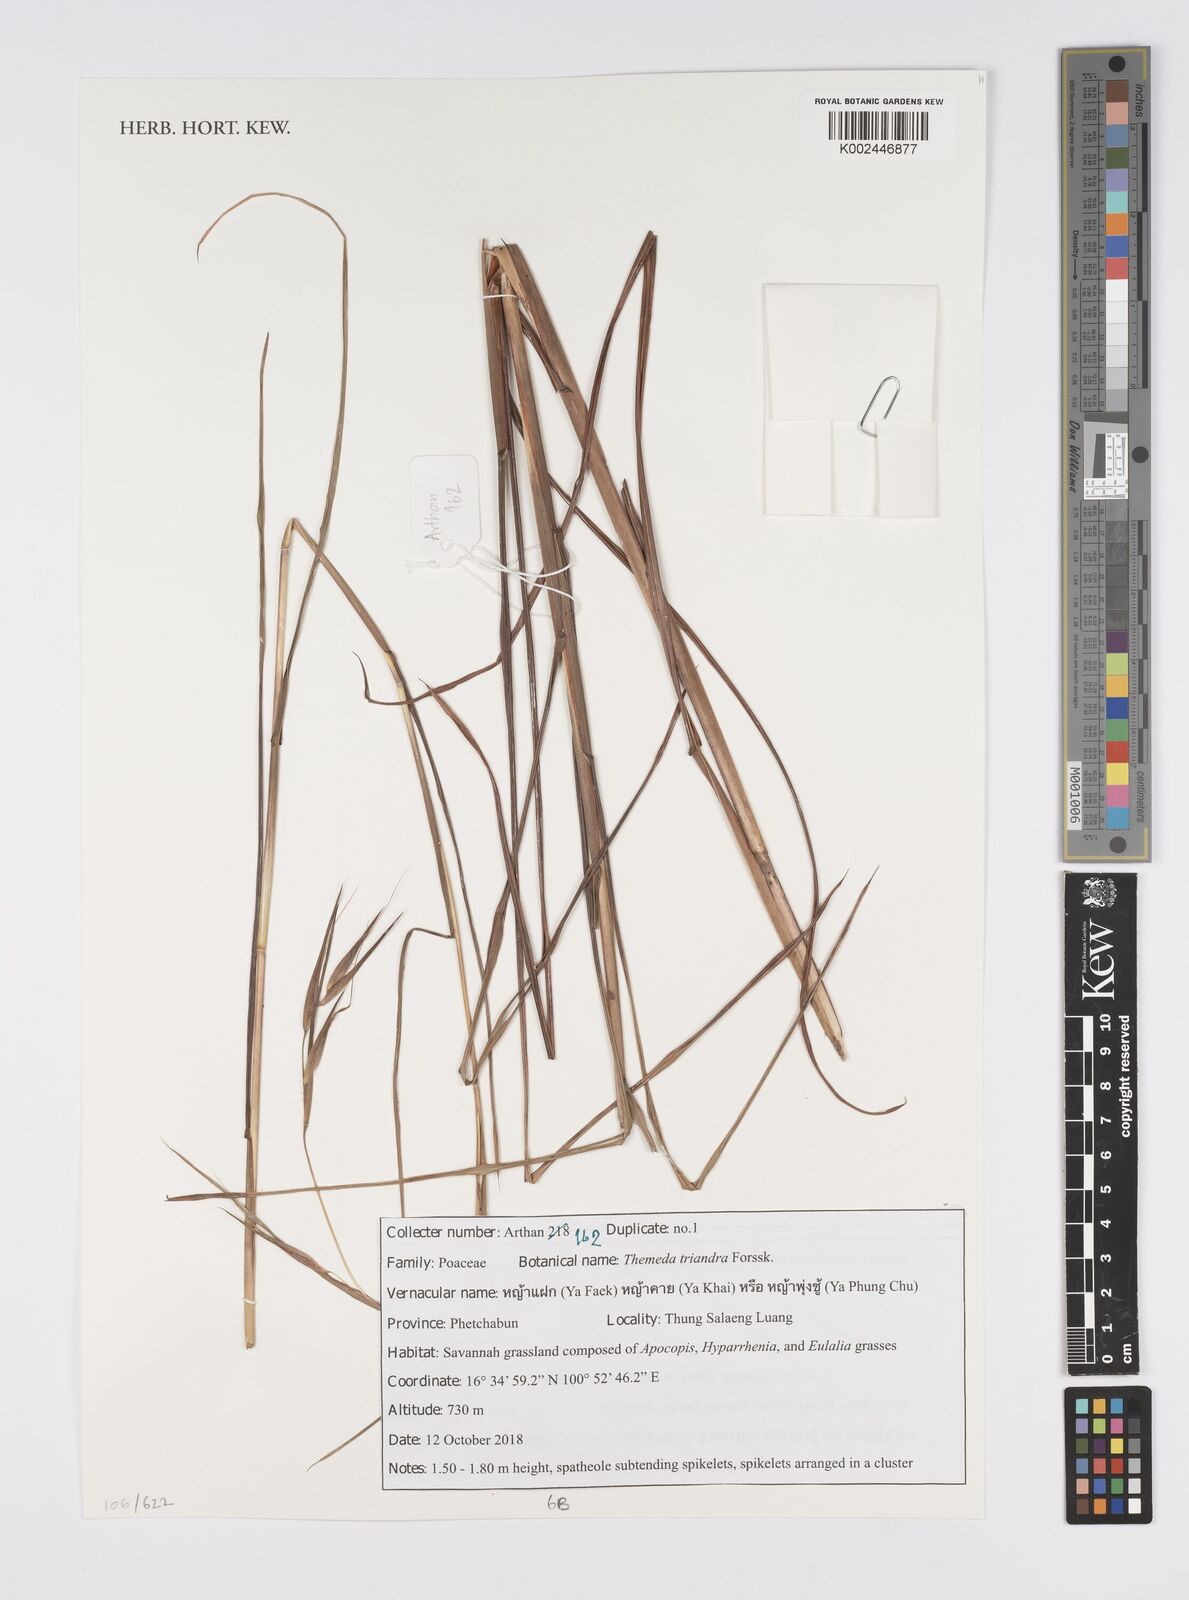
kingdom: Plantae
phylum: Tracheophyta
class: Liliopsida
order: Poales
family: Poaceae
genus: Themeda
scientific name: Themeda triandra
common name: Kangaroo grass
